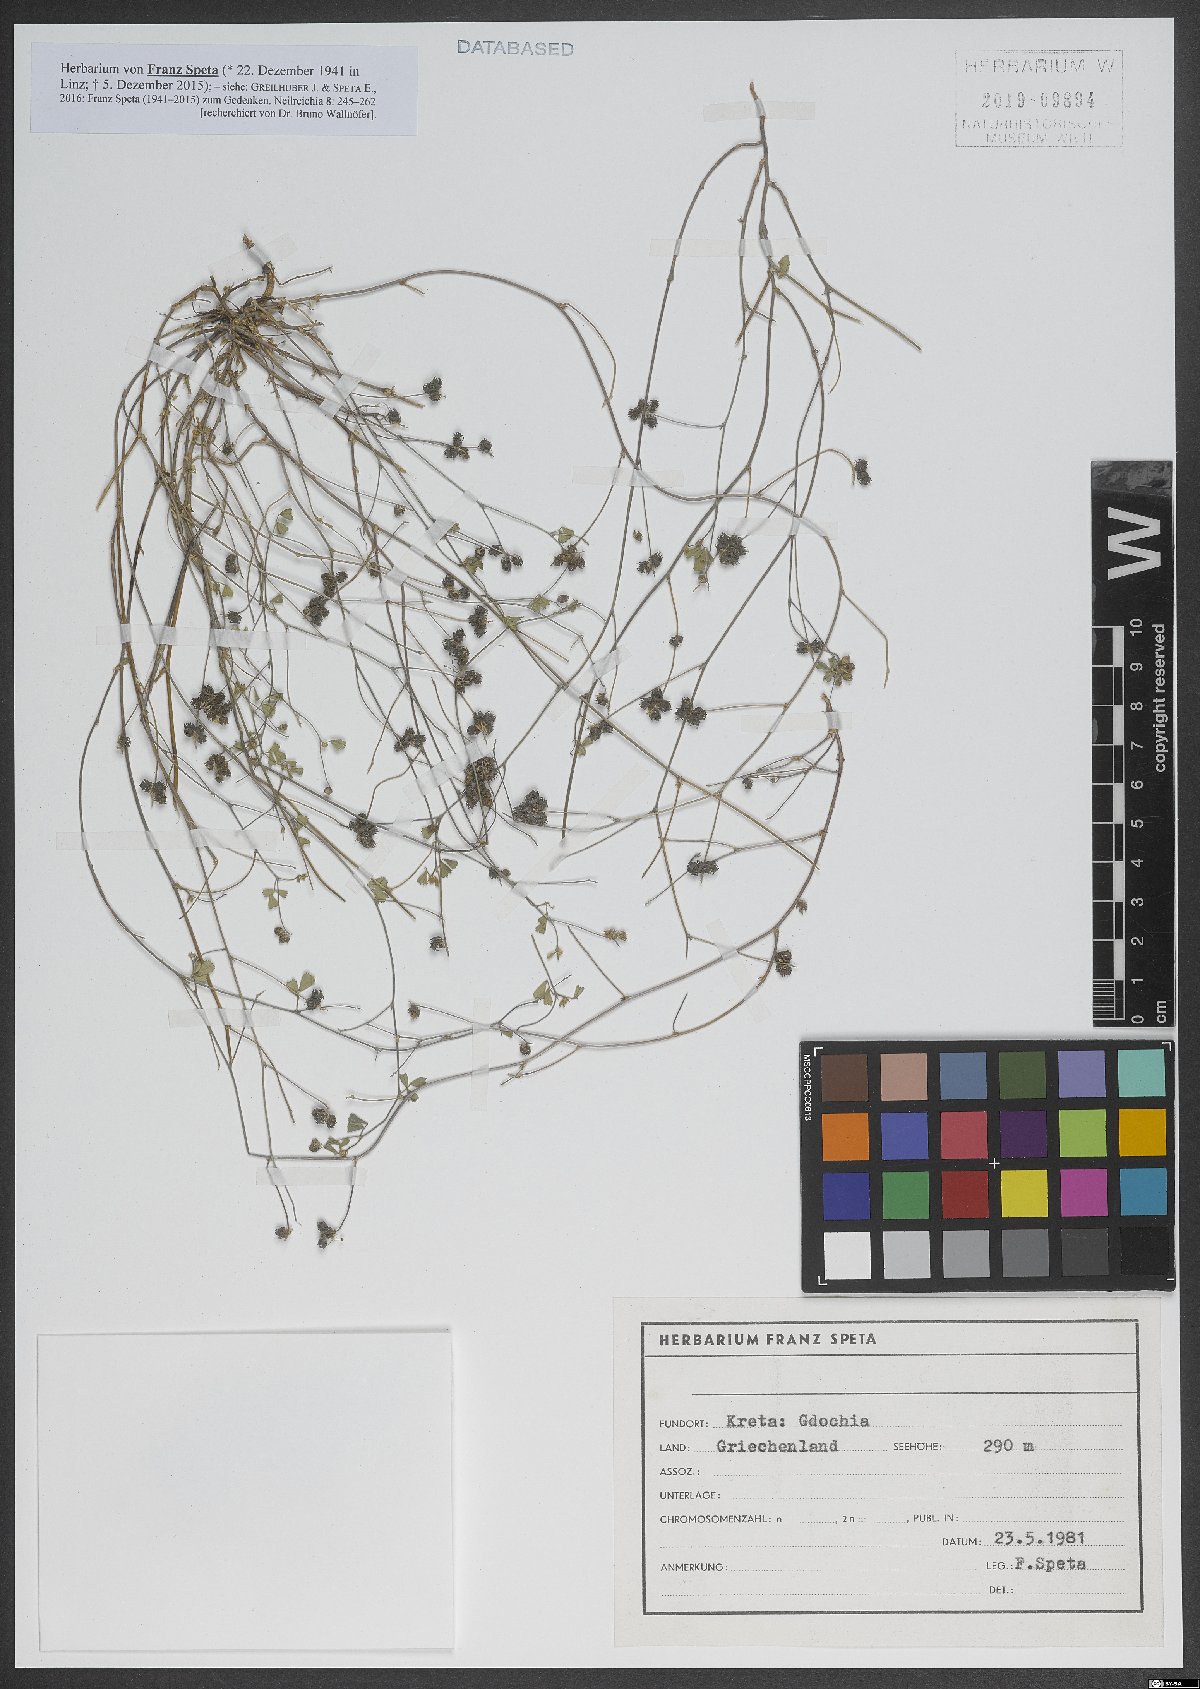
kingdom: Plantae
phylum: Tracheophyta
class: Magnoliopsida
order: Fabales
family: Fabaceae
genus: Medicago
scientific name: Medicago coronata
